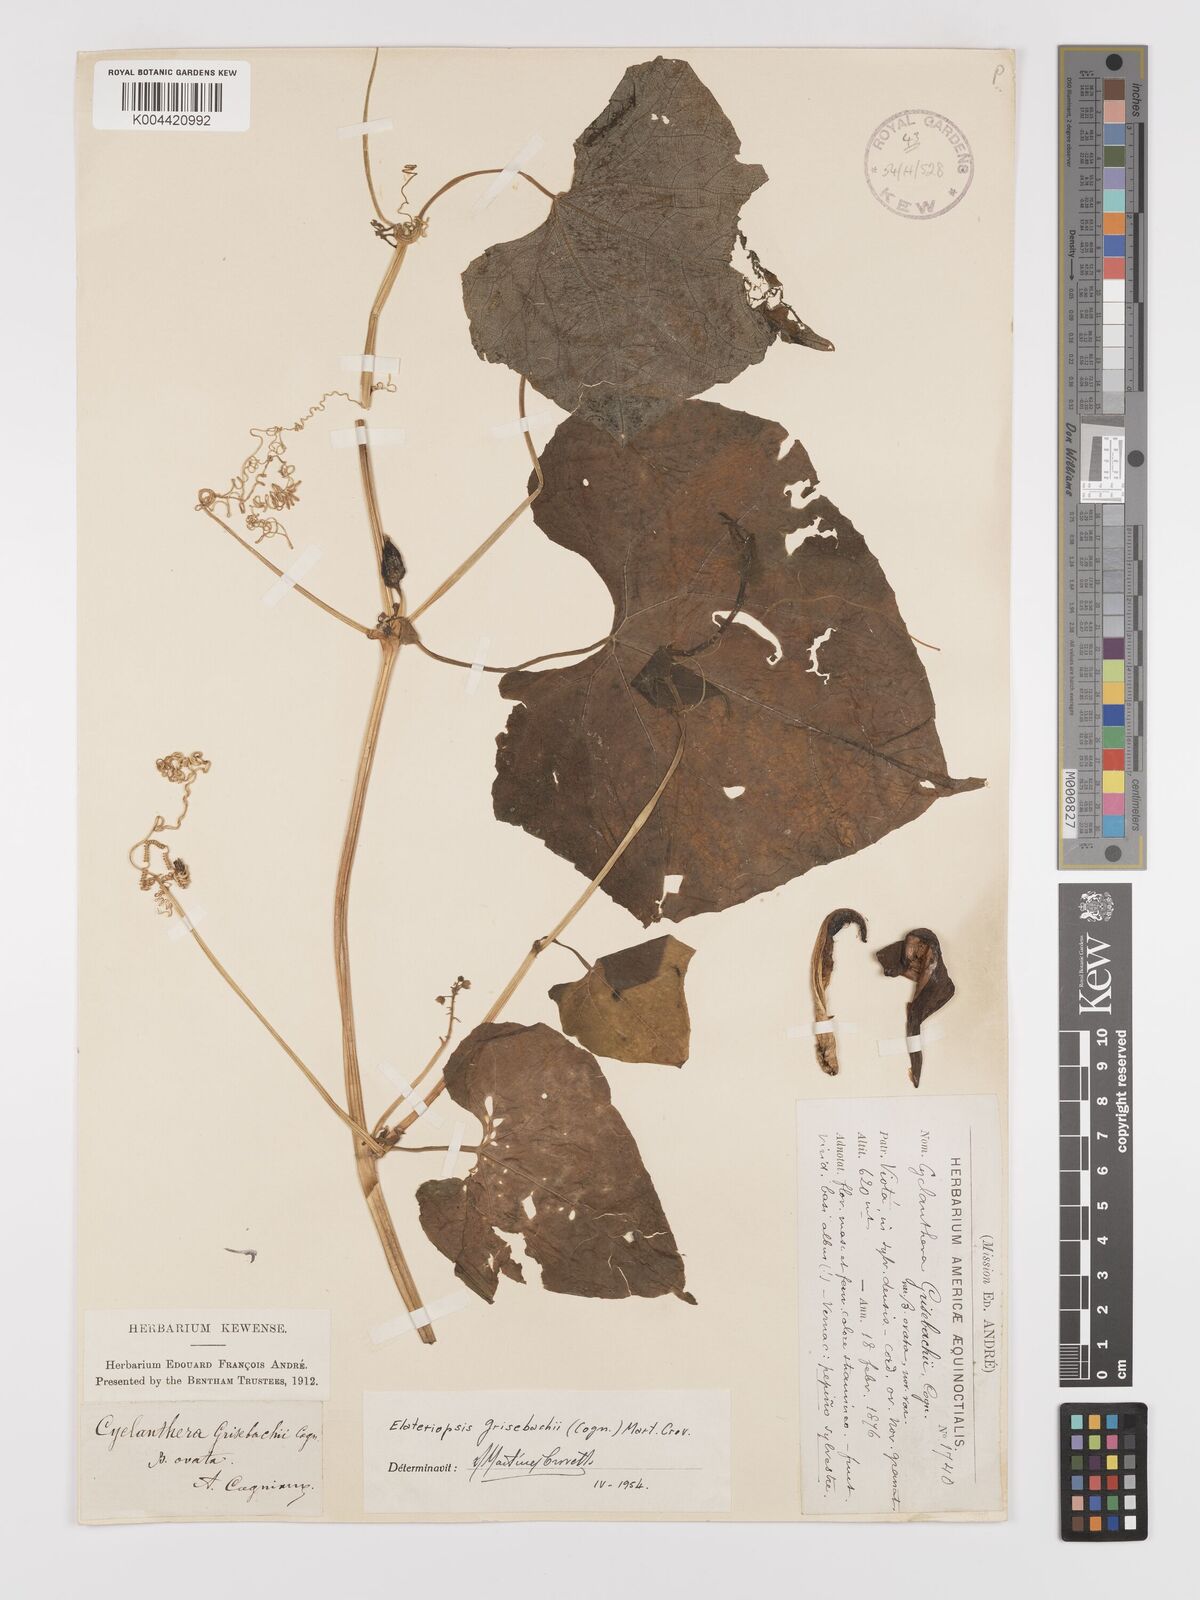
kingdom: Plantae
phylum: Tracheophyta
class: Magnoliopsida
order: Cucurbitales
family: Cucurbitaceae
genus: Hanburia
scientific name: Hanburia grisebachii
